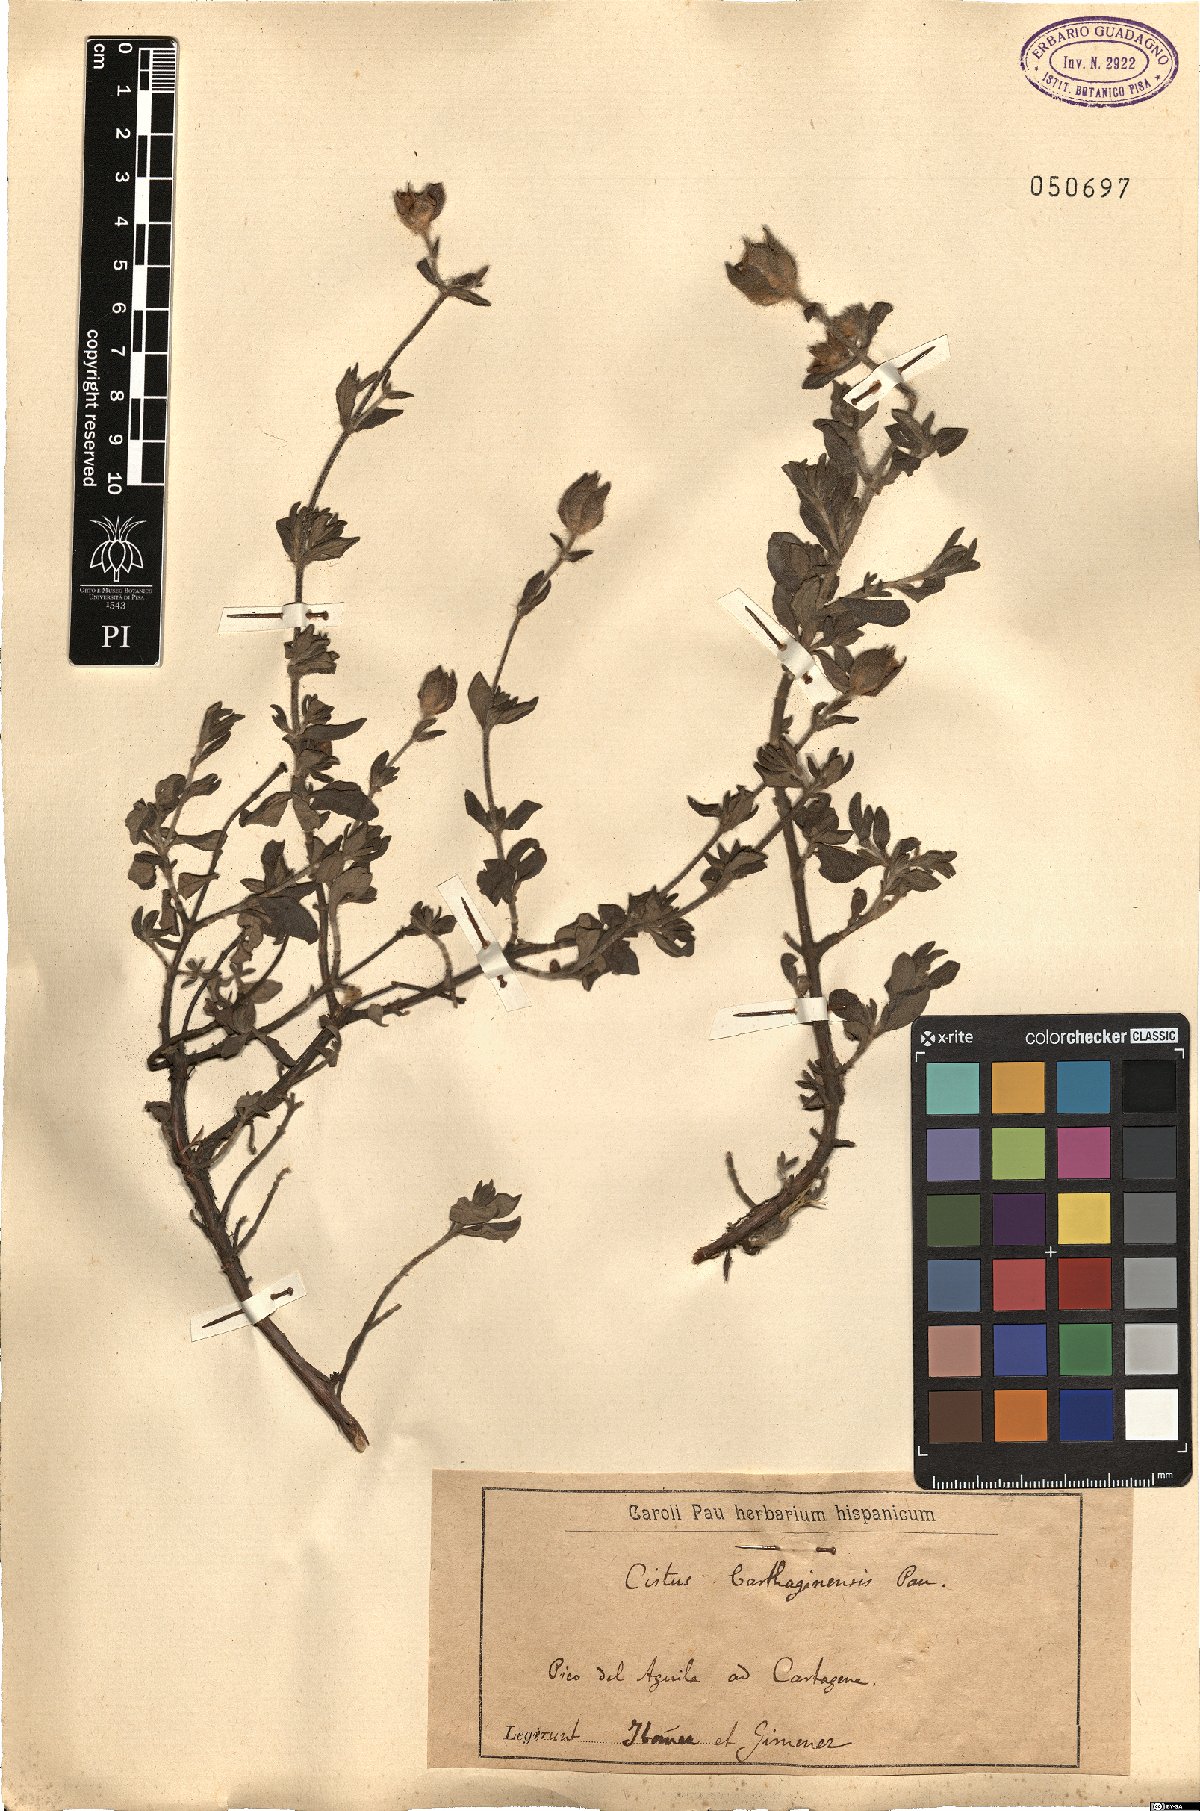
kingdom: Plantae
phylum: Tracheophyta
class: Magnoliopsida
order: Malvales
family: Cistaceae
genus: Cistus
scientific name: Cistus heterophyllus
